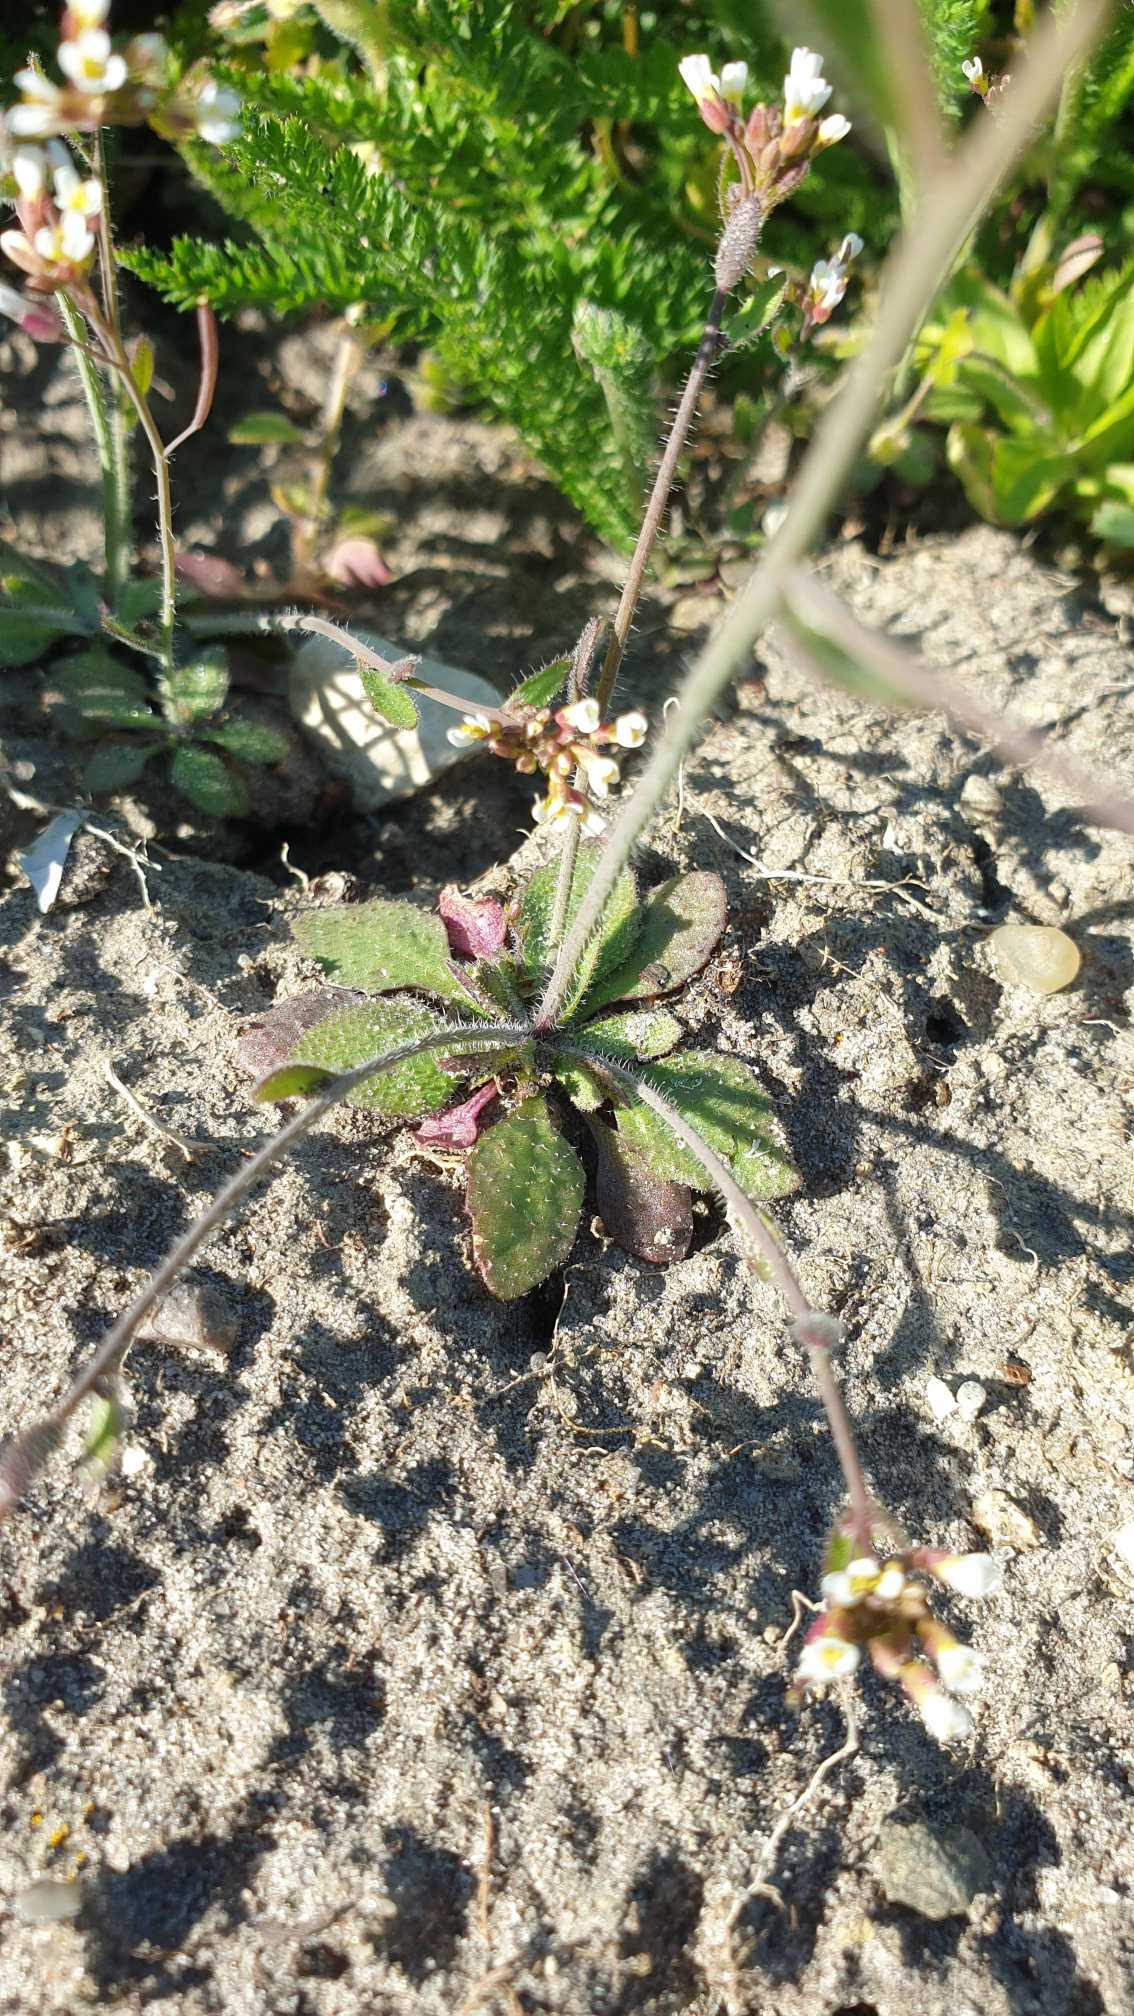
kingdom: Plantae
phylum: Tracheophyta
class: Magnoliopsida
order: Brassicales
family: Brassicaceae
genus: Arabidopsis
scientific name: Arabidopsis thaliana
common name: Almindelig gåsemad
